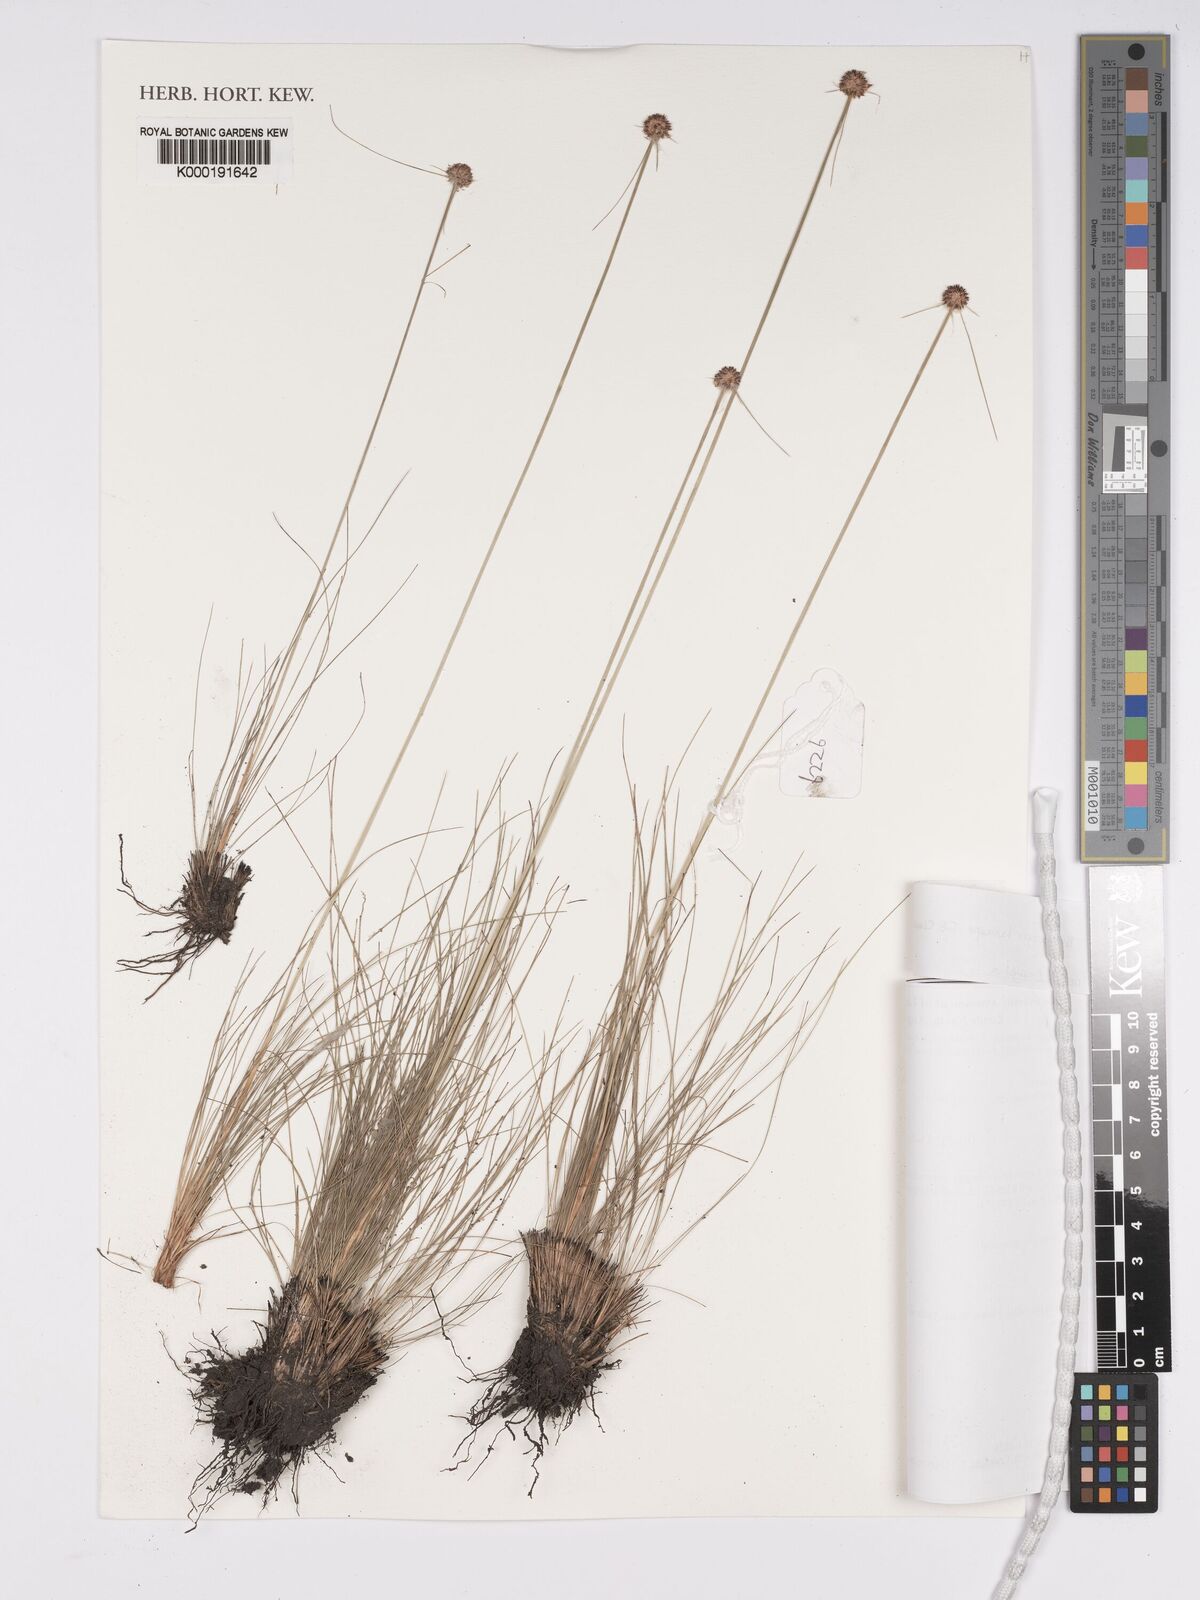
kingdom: Plantae
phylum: Tracheophyta
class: Liliopsida
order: Poales
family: Cyperaceae
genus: Bulbostylis
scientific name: Bulbostylis laniceps
